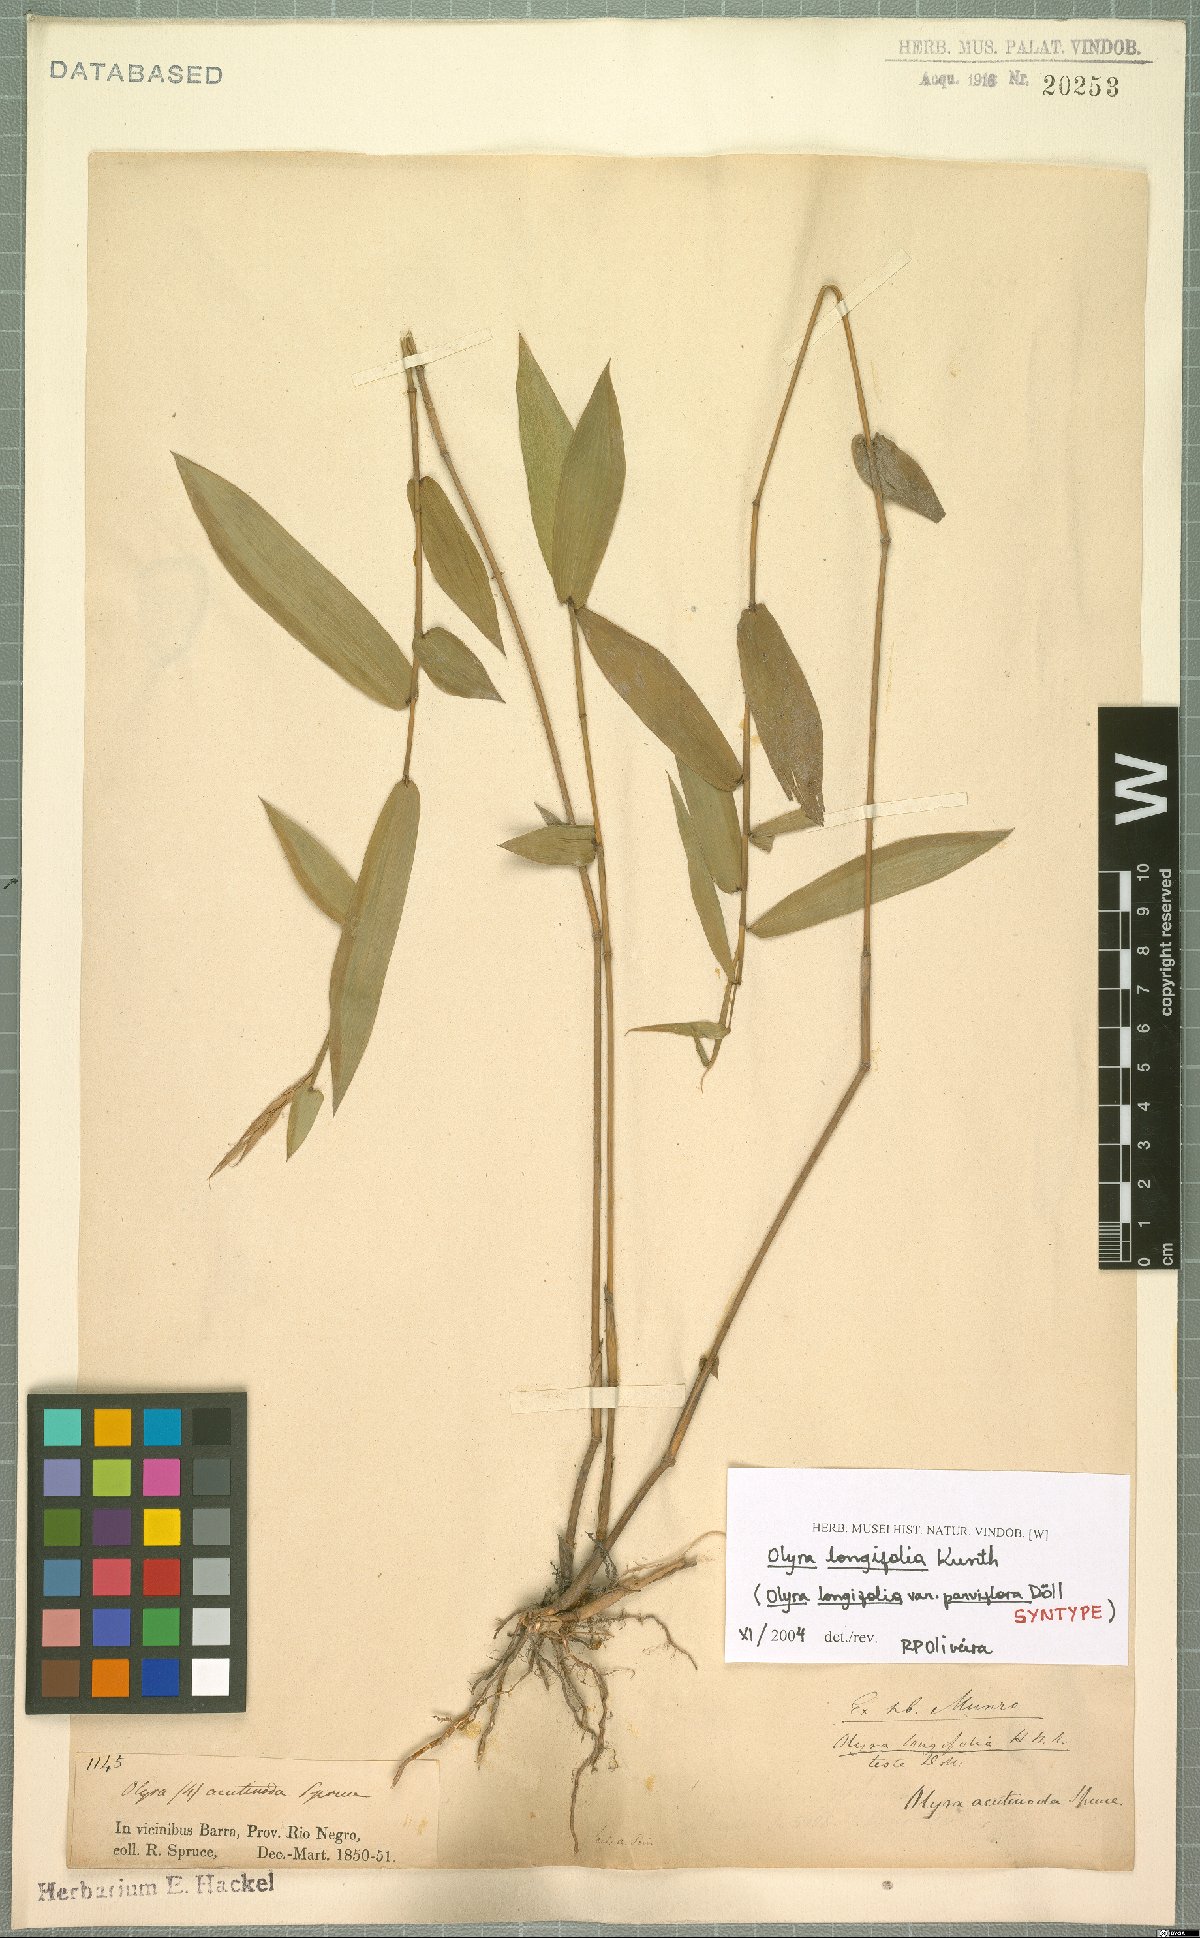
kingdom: Plantae
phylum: Tracheophyta
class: Liliopsida
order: Poales
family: Poaceae
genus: Olyra
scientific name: Olyra longifolia
